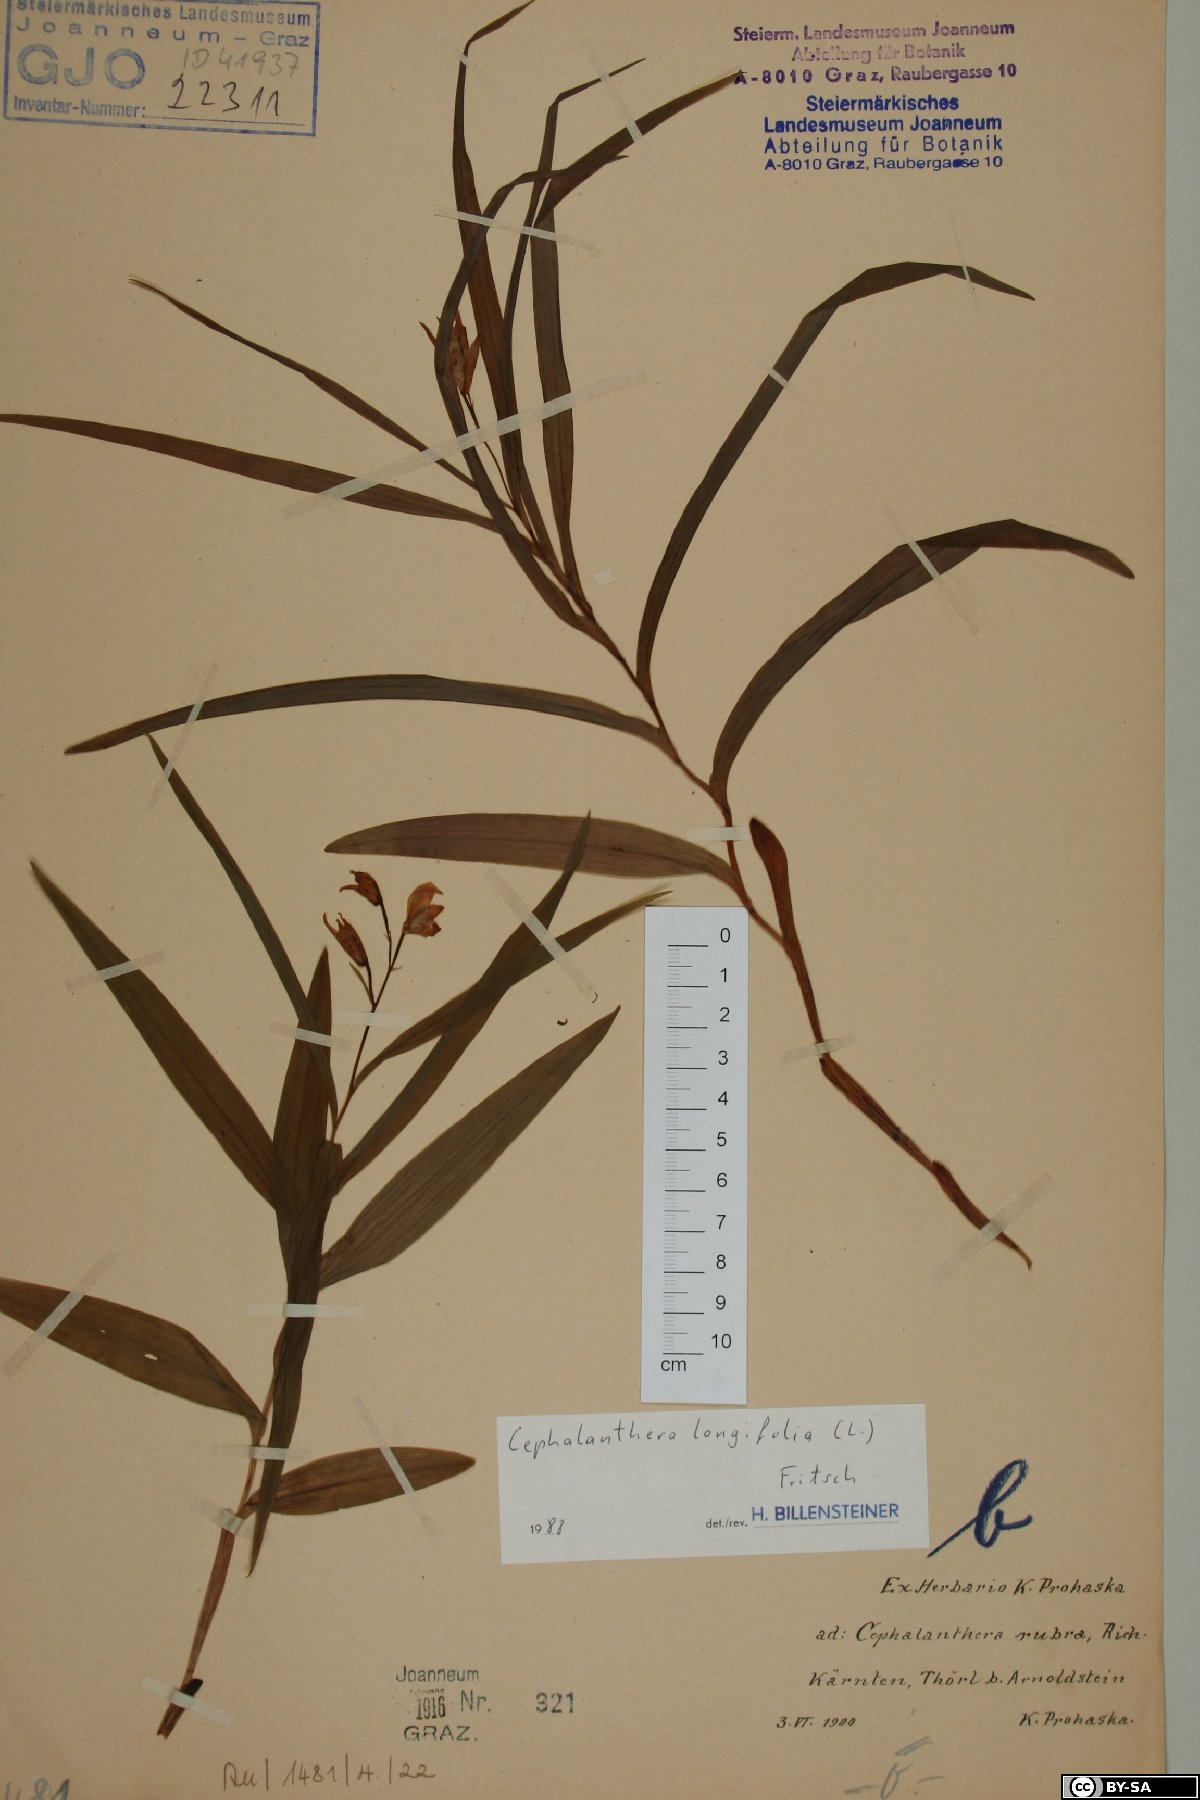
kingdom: Plantae
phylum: Tracheophyta
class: Liliopsida
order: Asparagales
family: Orchidaceae
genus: Cephalanthera
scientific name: Cephalanthera longifolia
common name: Narrow-leaved helleborine
